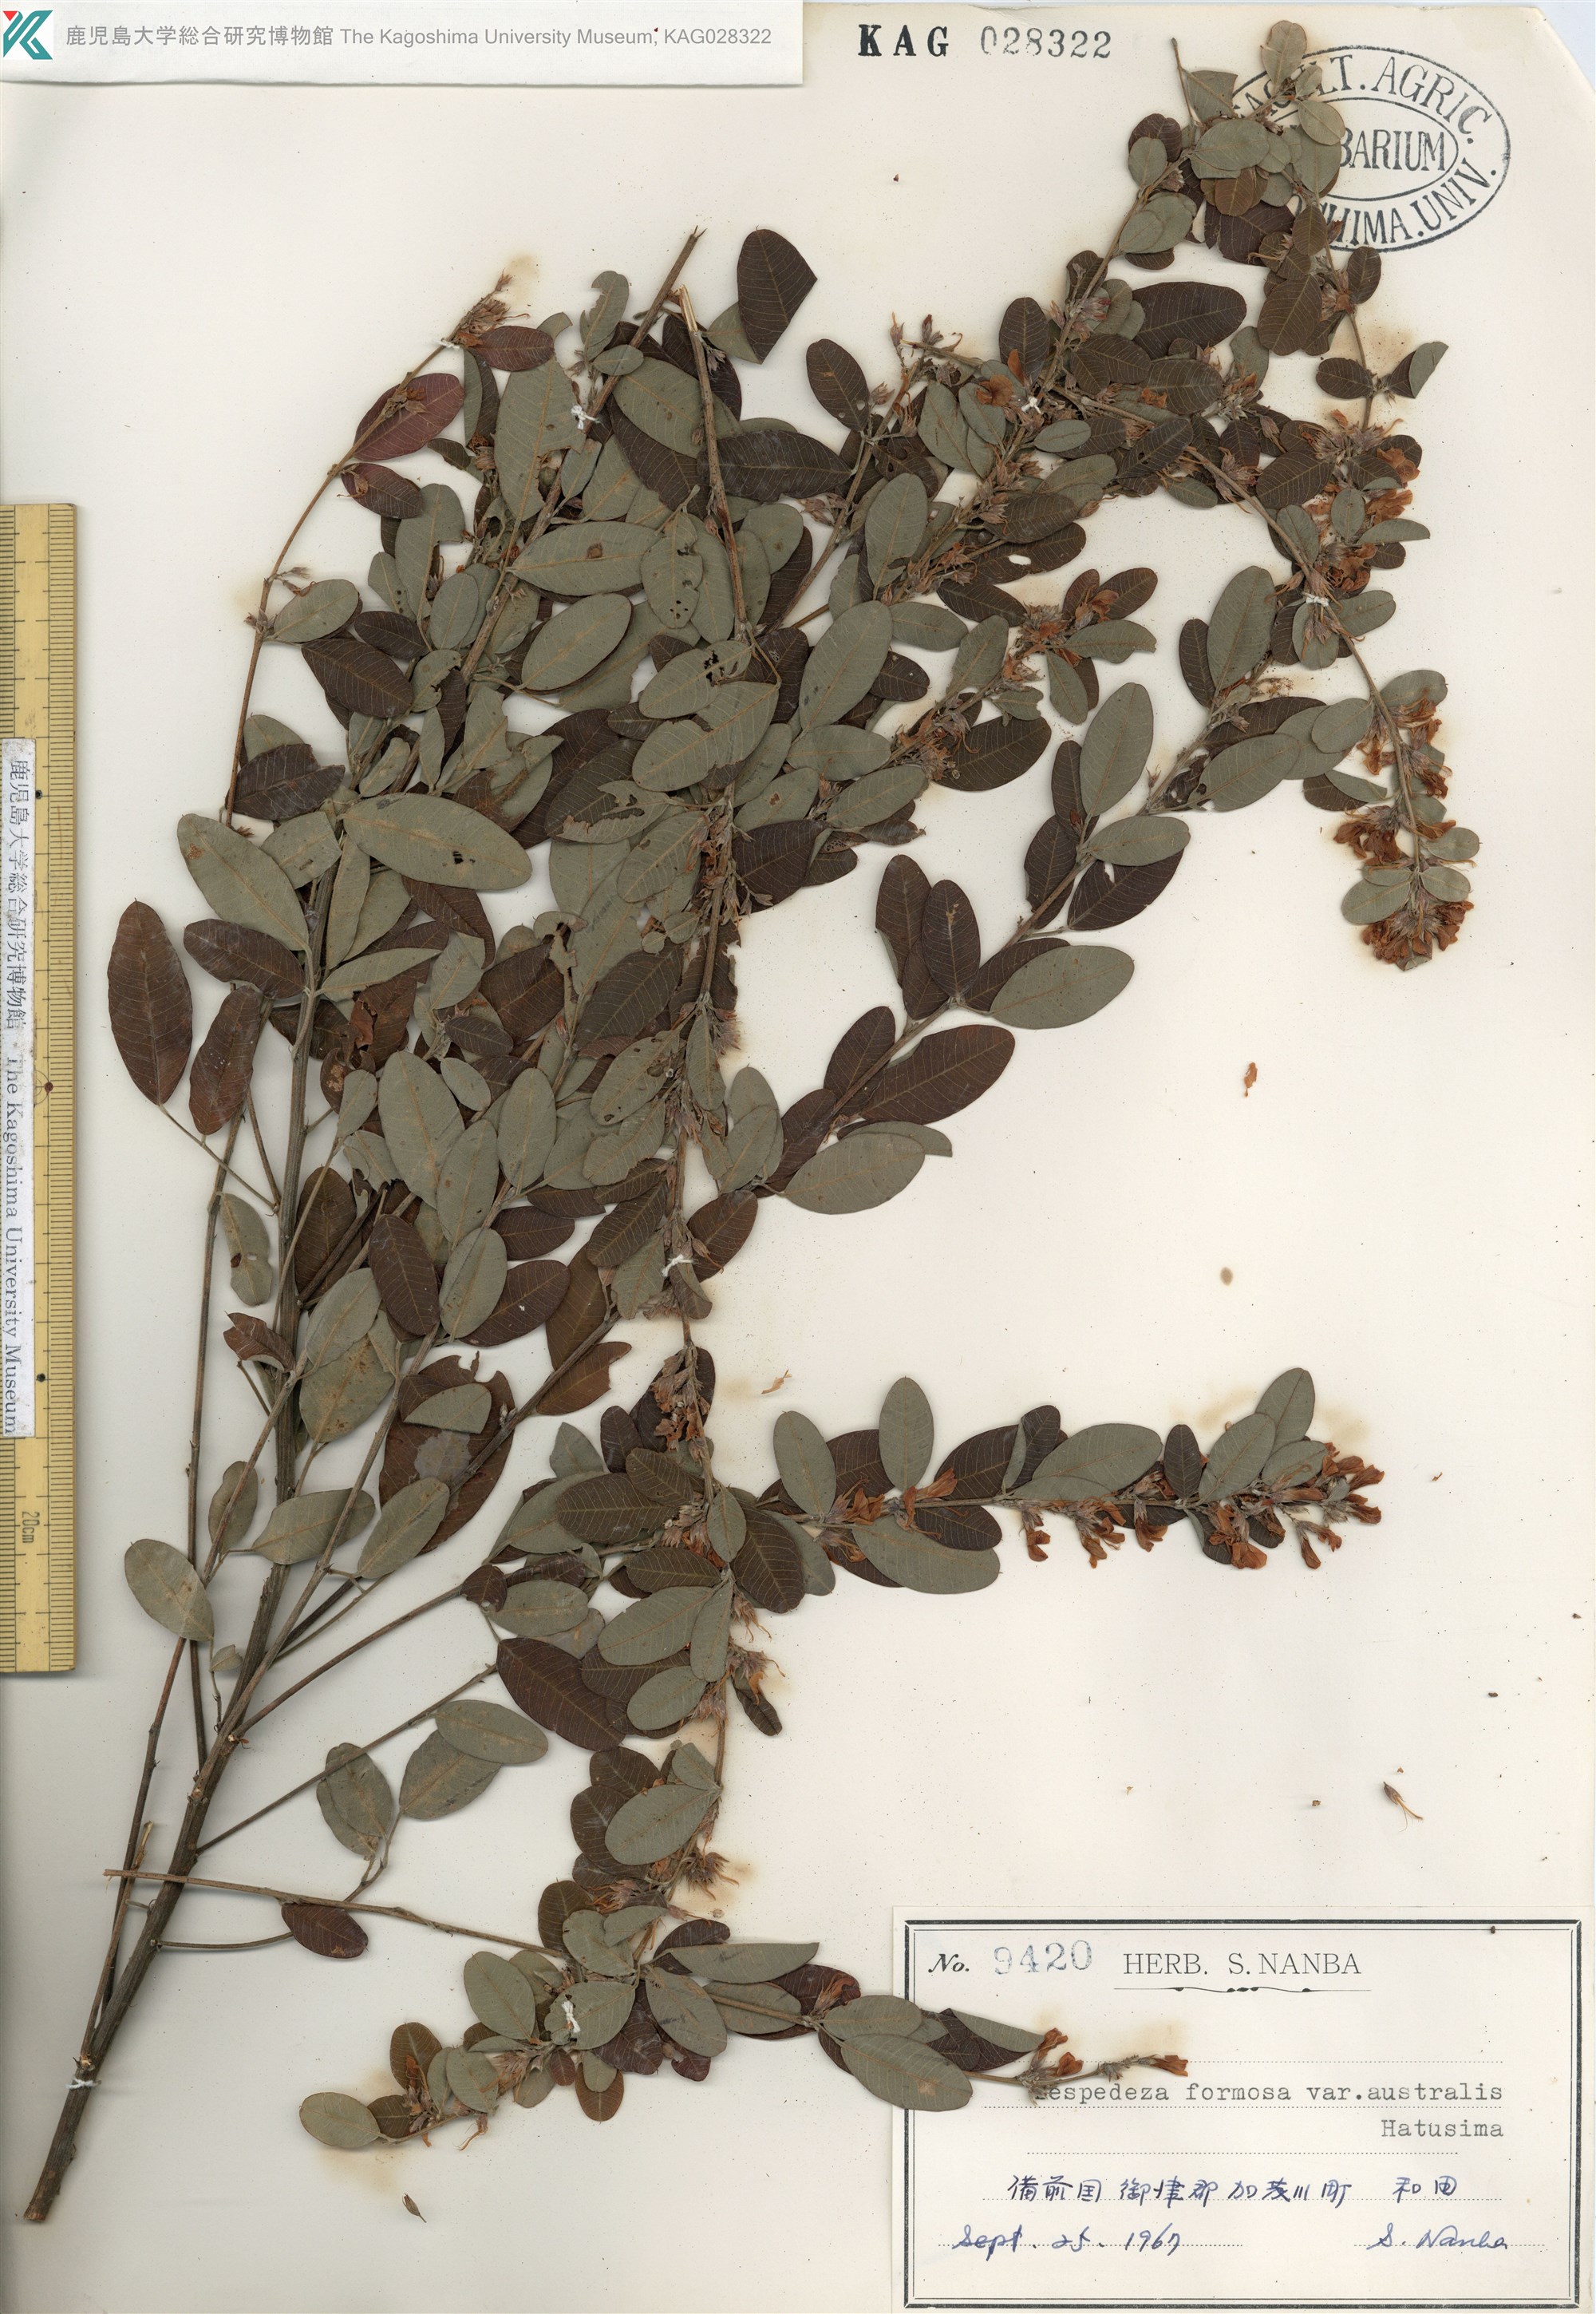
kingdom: Plantae
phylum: Tracheophyta
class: Magnoliopsida
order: Fabales
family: Fabaceae
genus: Lespedeza
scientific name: Lespedeza thunbergii
